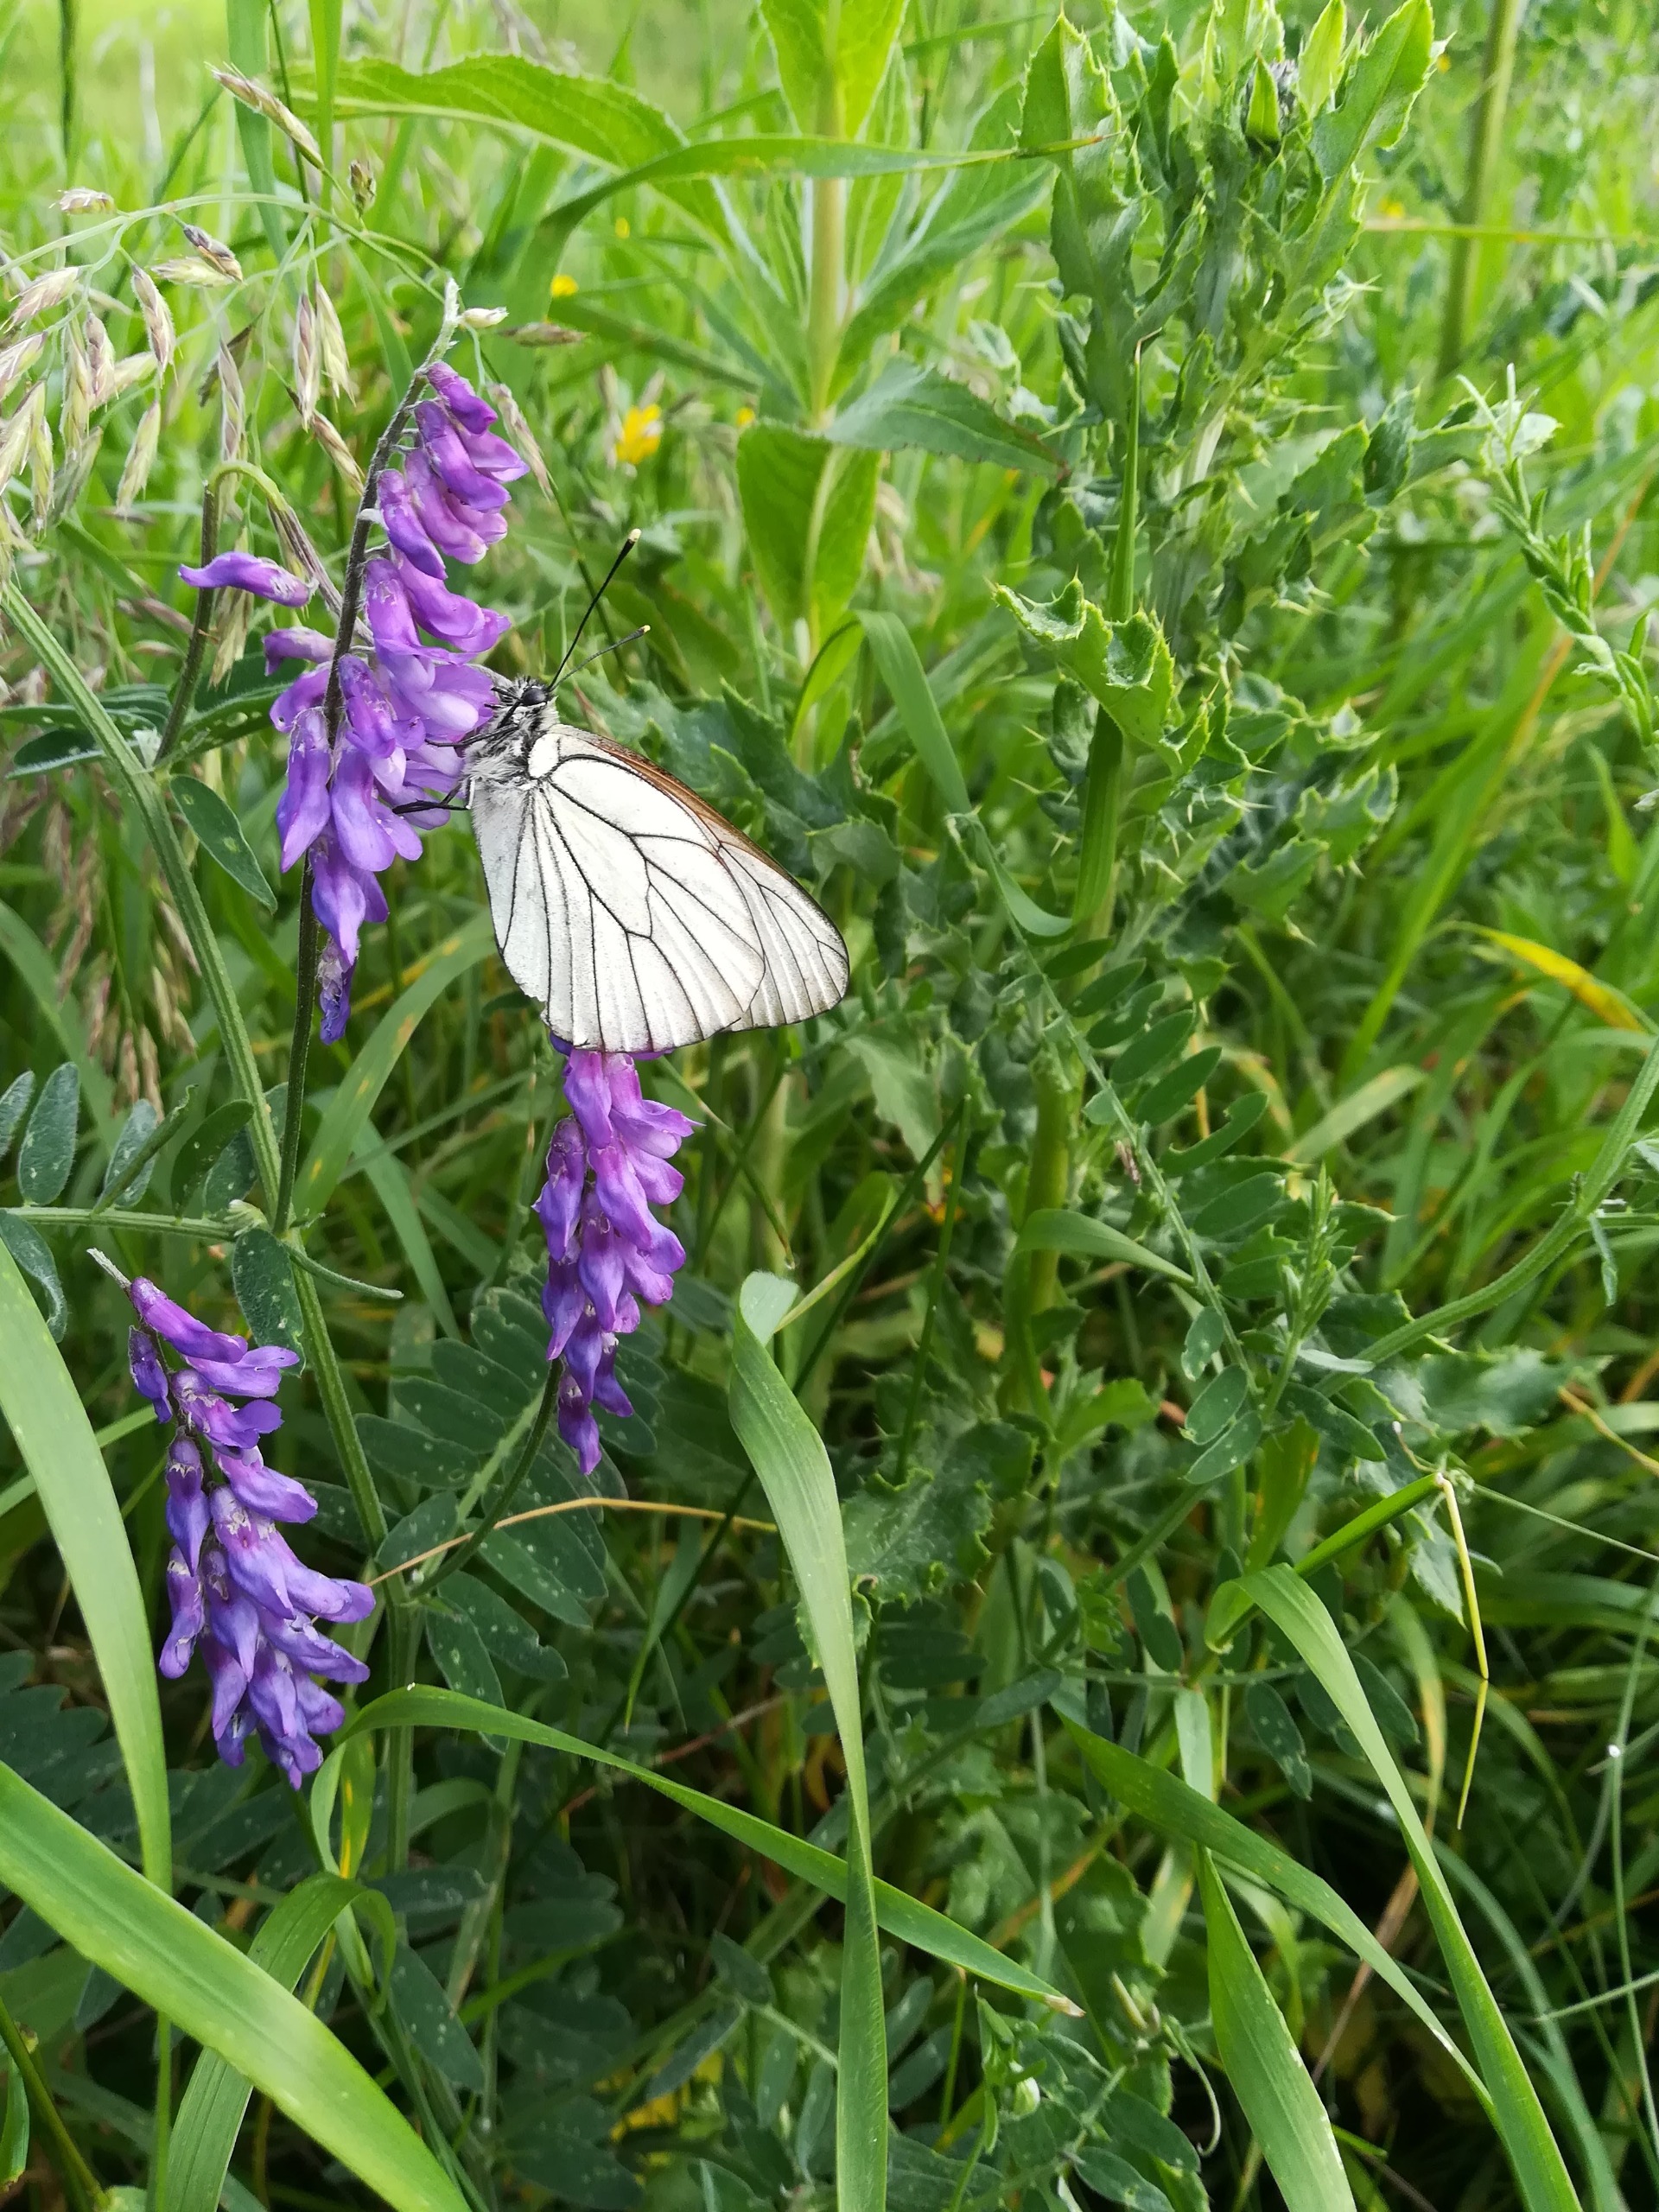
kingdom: Animalia
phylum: Arthropoda
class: Insecta
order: Lepidoptera
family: Pieridae
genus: Aporia
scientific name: Aporia crataegi
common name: Sortåret hvidvinge
